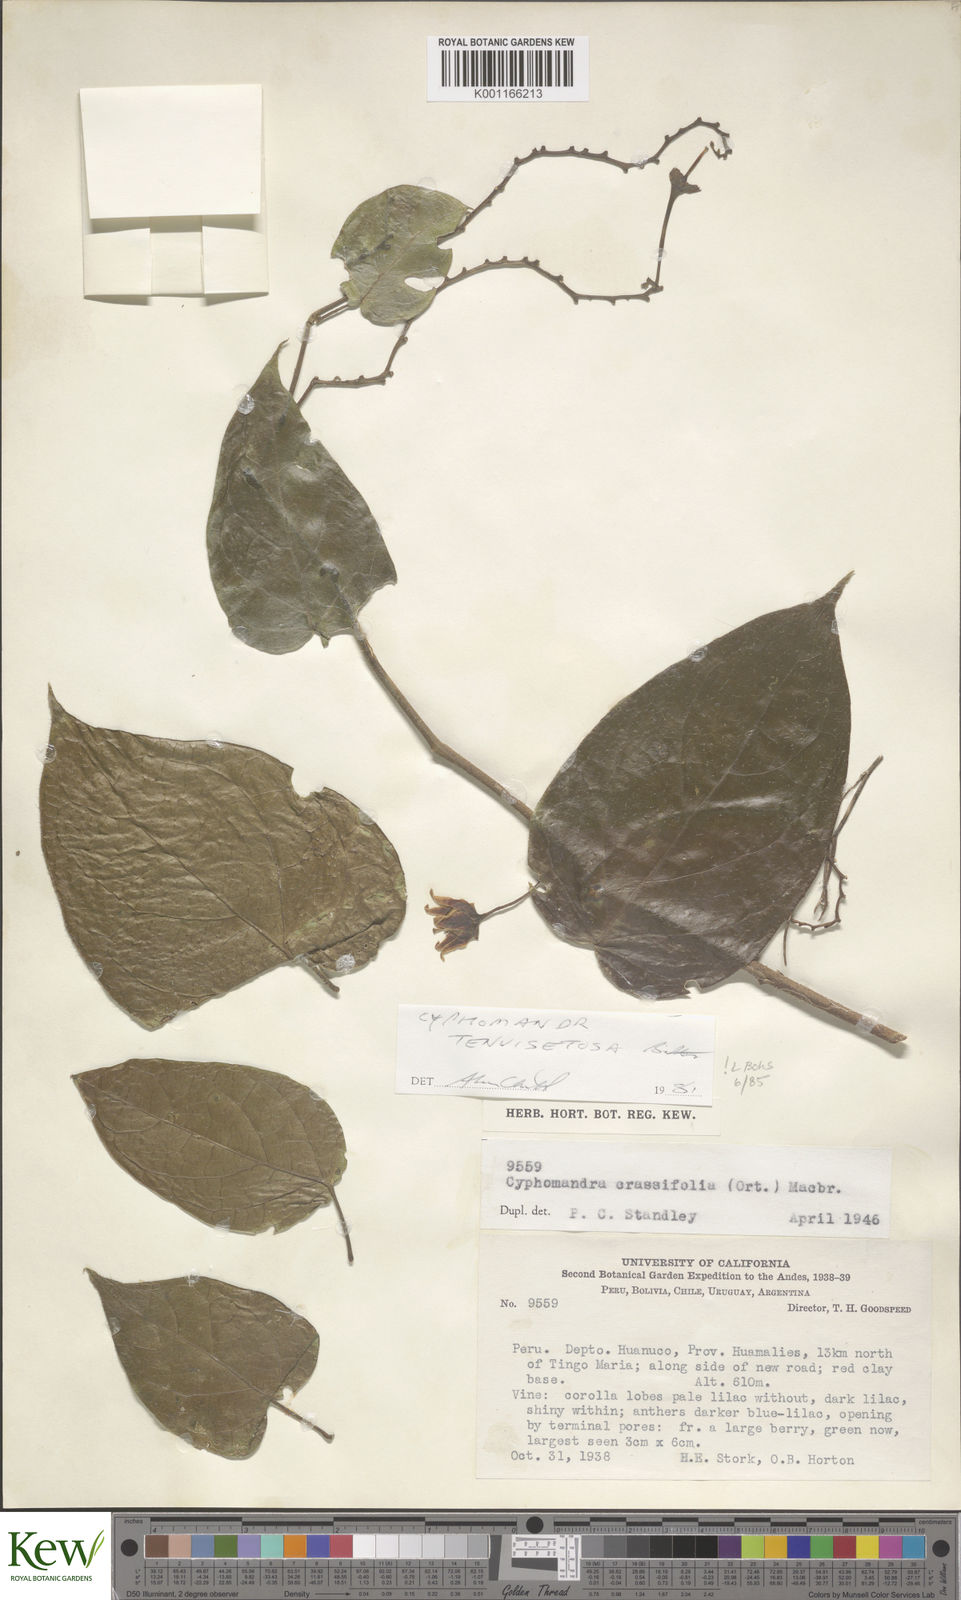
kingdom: Plantae
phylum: Tracheophyta
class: Magnoliopsida
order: Solanales
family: Solanaceae
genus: Solanum
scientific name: Solanum tenuisetosum
